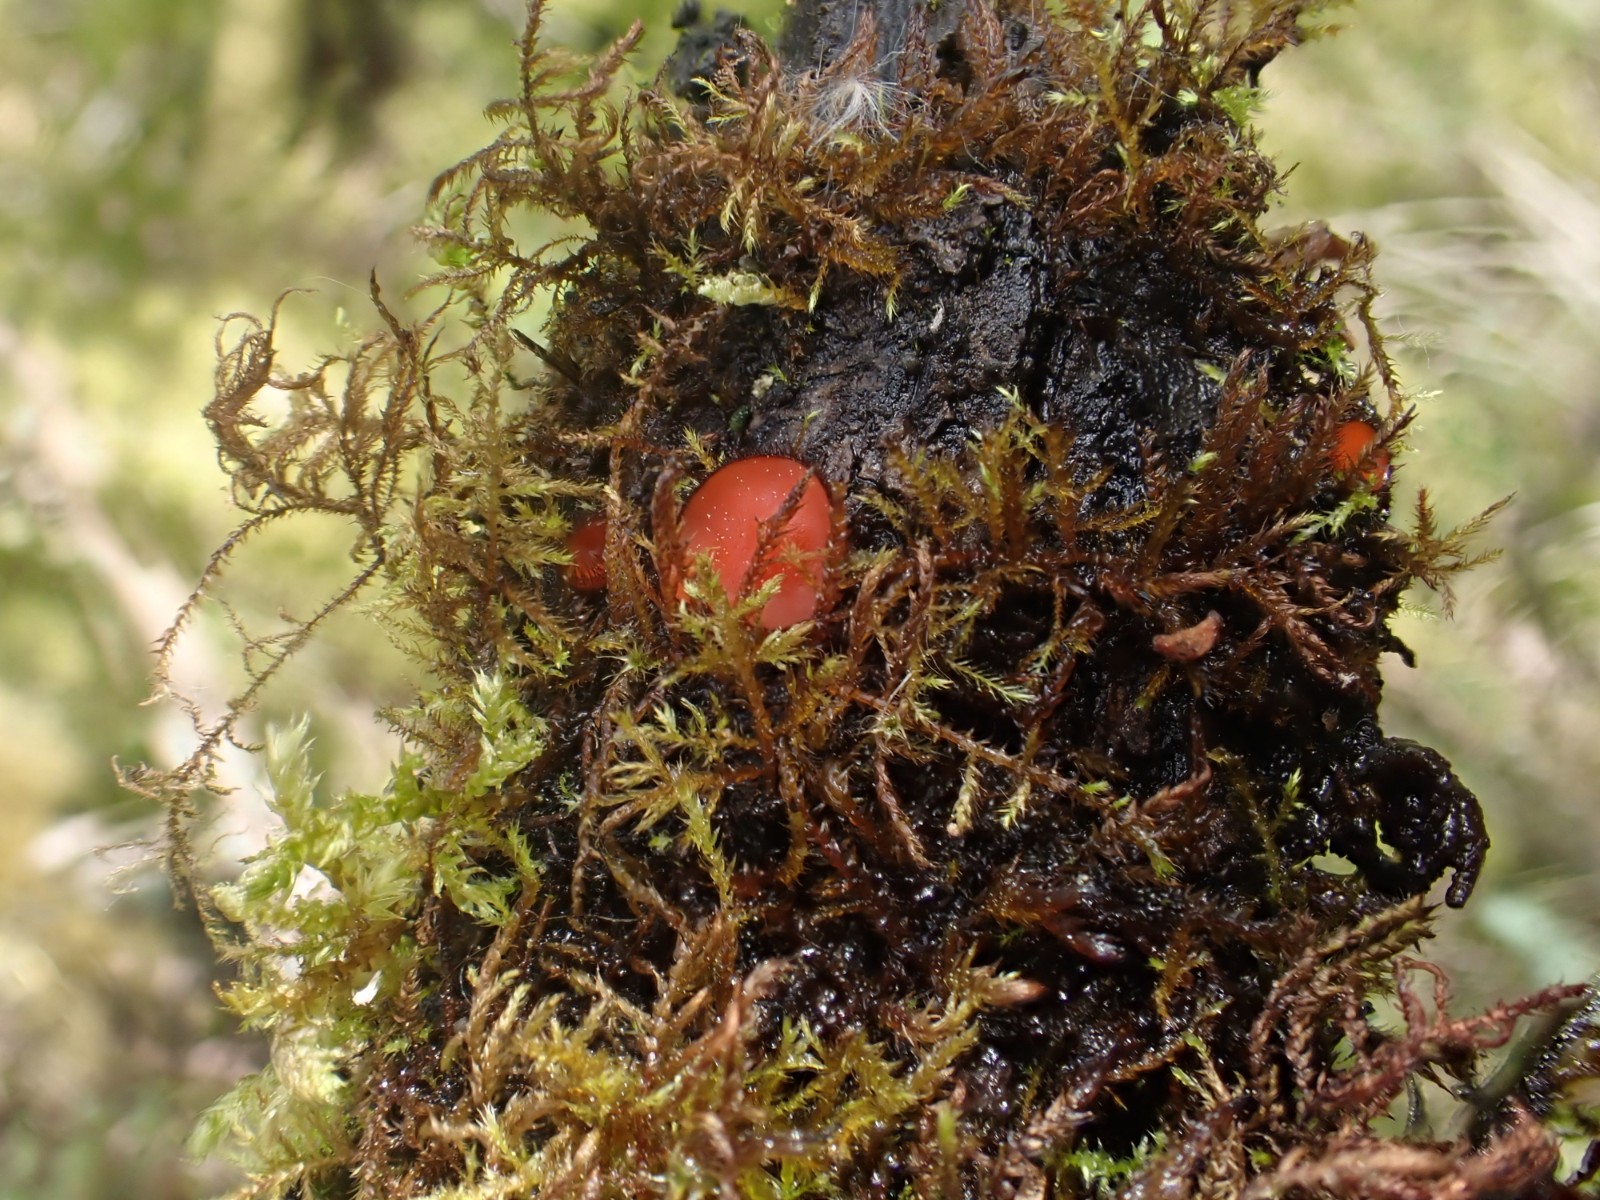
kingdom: Fungi
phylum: Ascomycota
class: Pezizomycetes
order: Pezizales
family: Pyronemataceae
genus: Scutellinia
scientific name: Scutellinia scutellata
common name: frynset skjoldbæger
